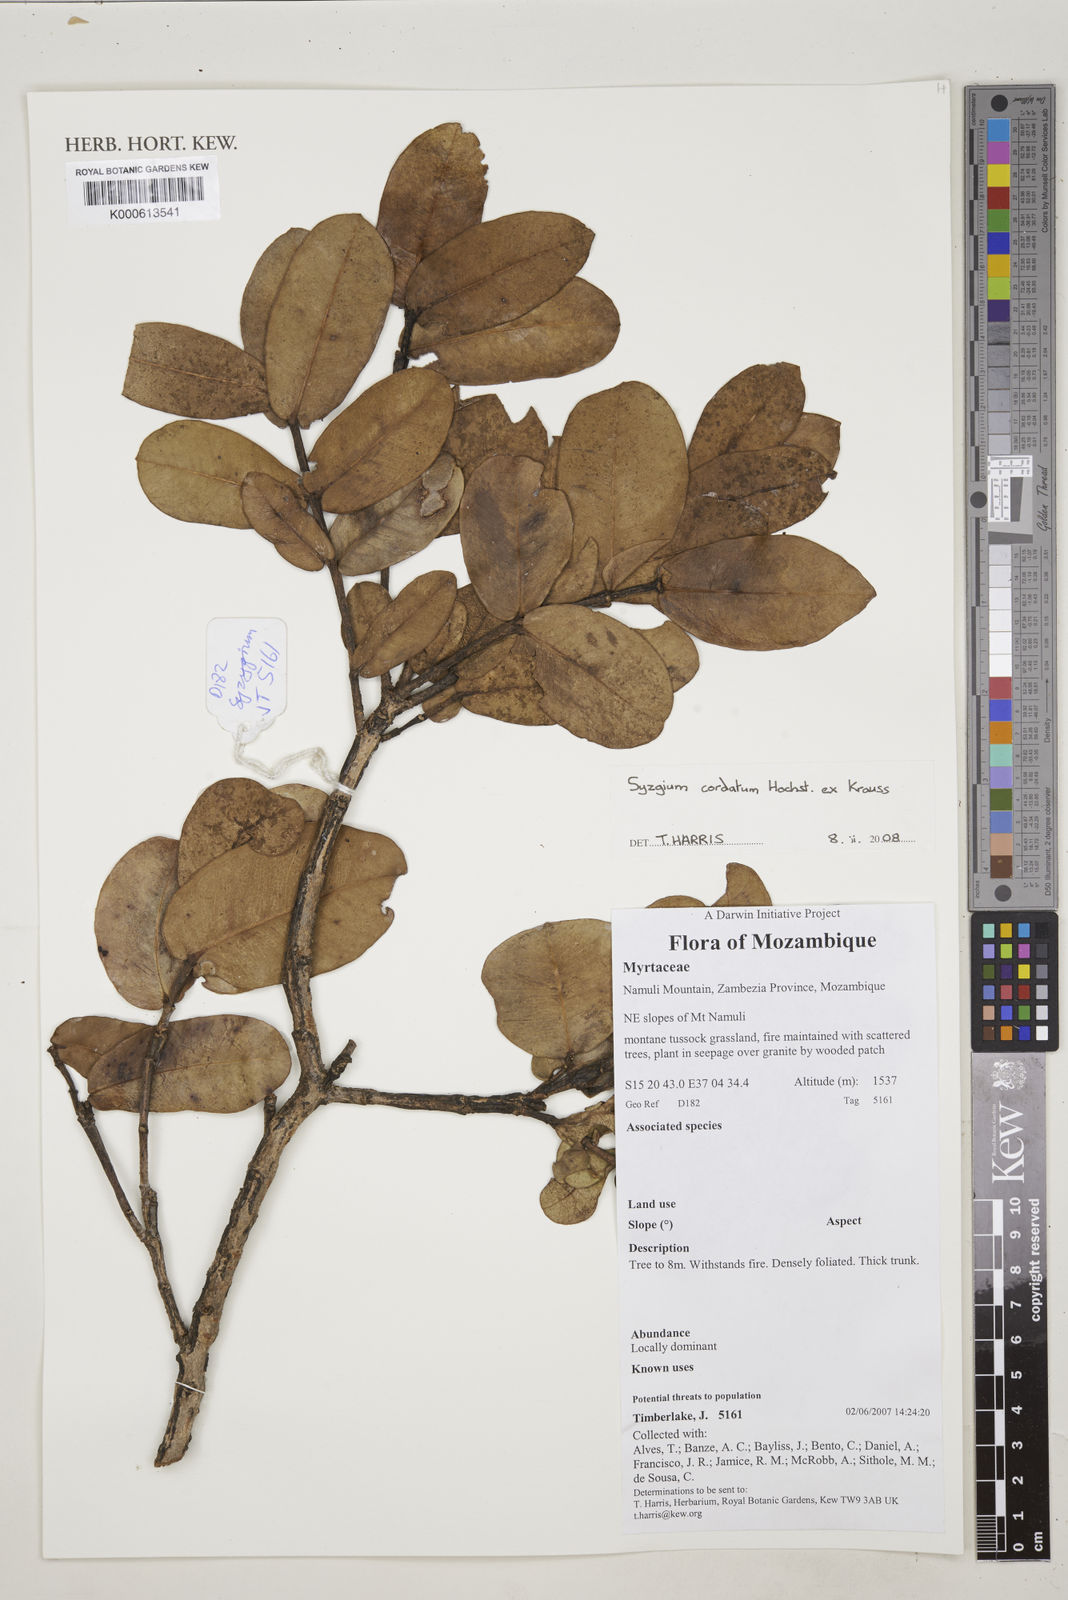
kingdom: Plantae
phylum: Tracheophyta
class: Magnoliopsida
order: Myrtales
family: Myrtaceae
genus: Syzygium
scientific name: Syzygium cordatum
